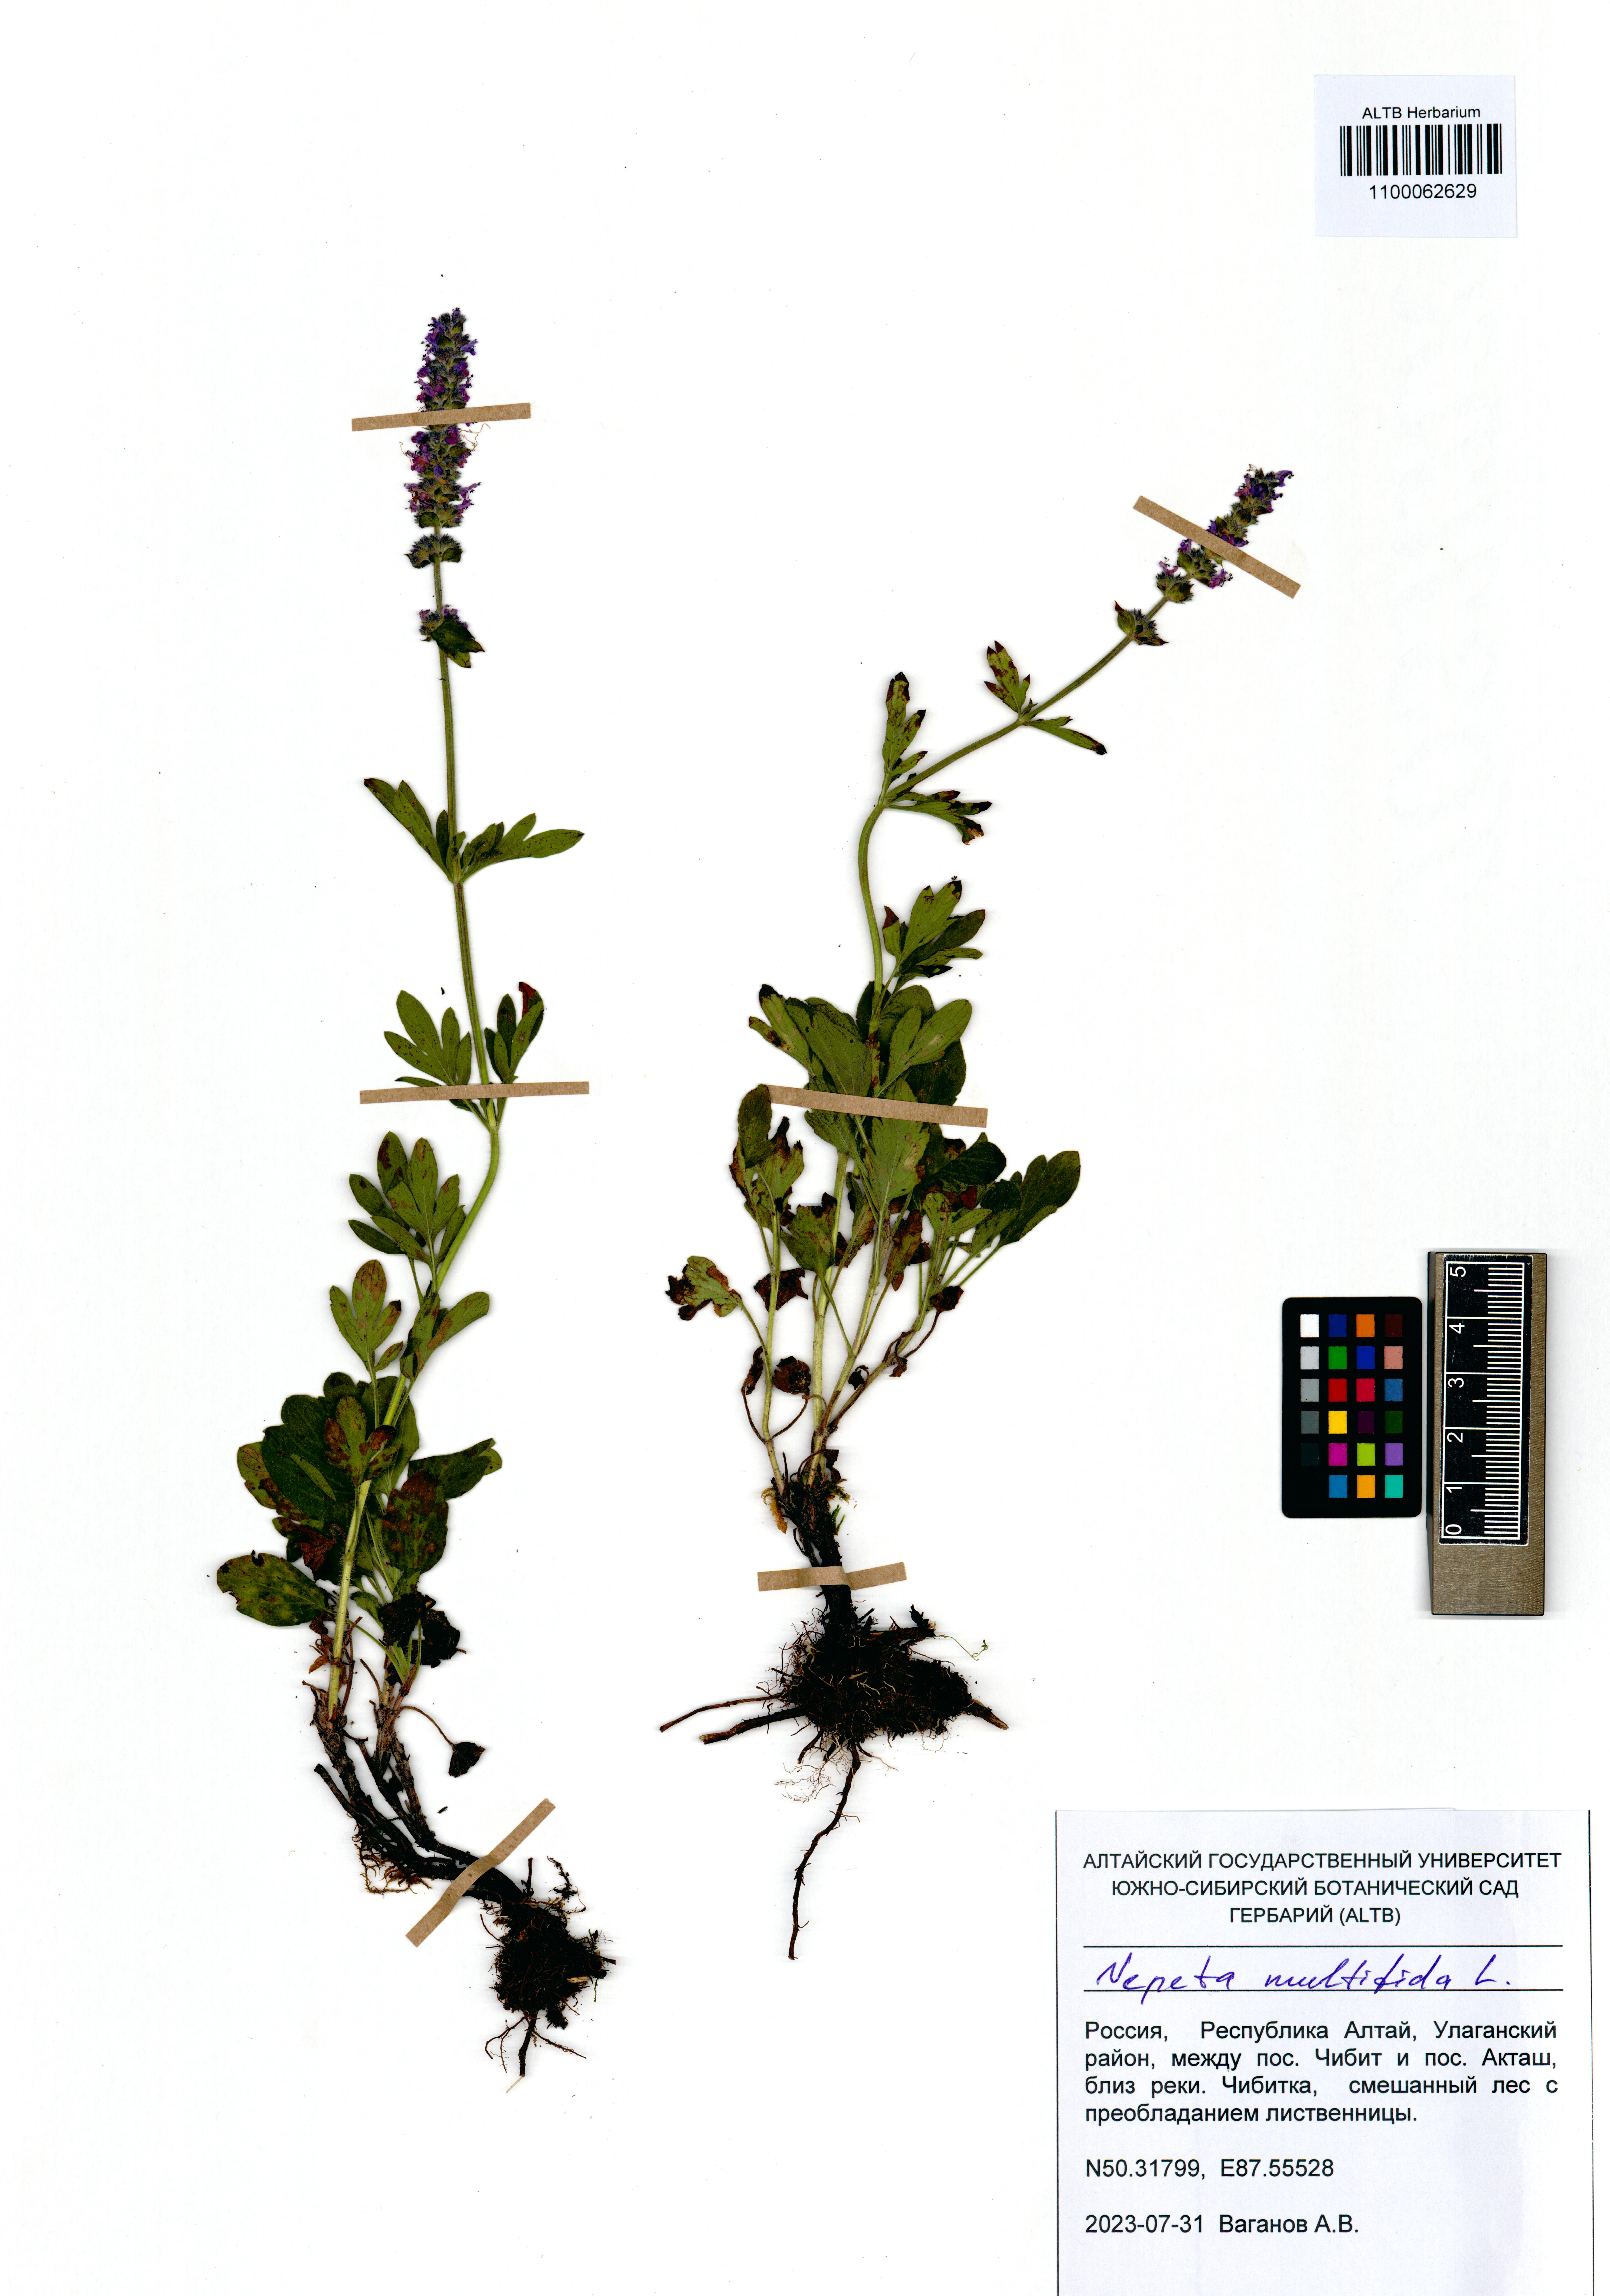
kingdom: Plantae
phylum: Tracheophyta
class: Magnoliopsida
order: Lamiales
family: Lamiaceae
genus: Nepeta
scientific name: Nepeta multifida
